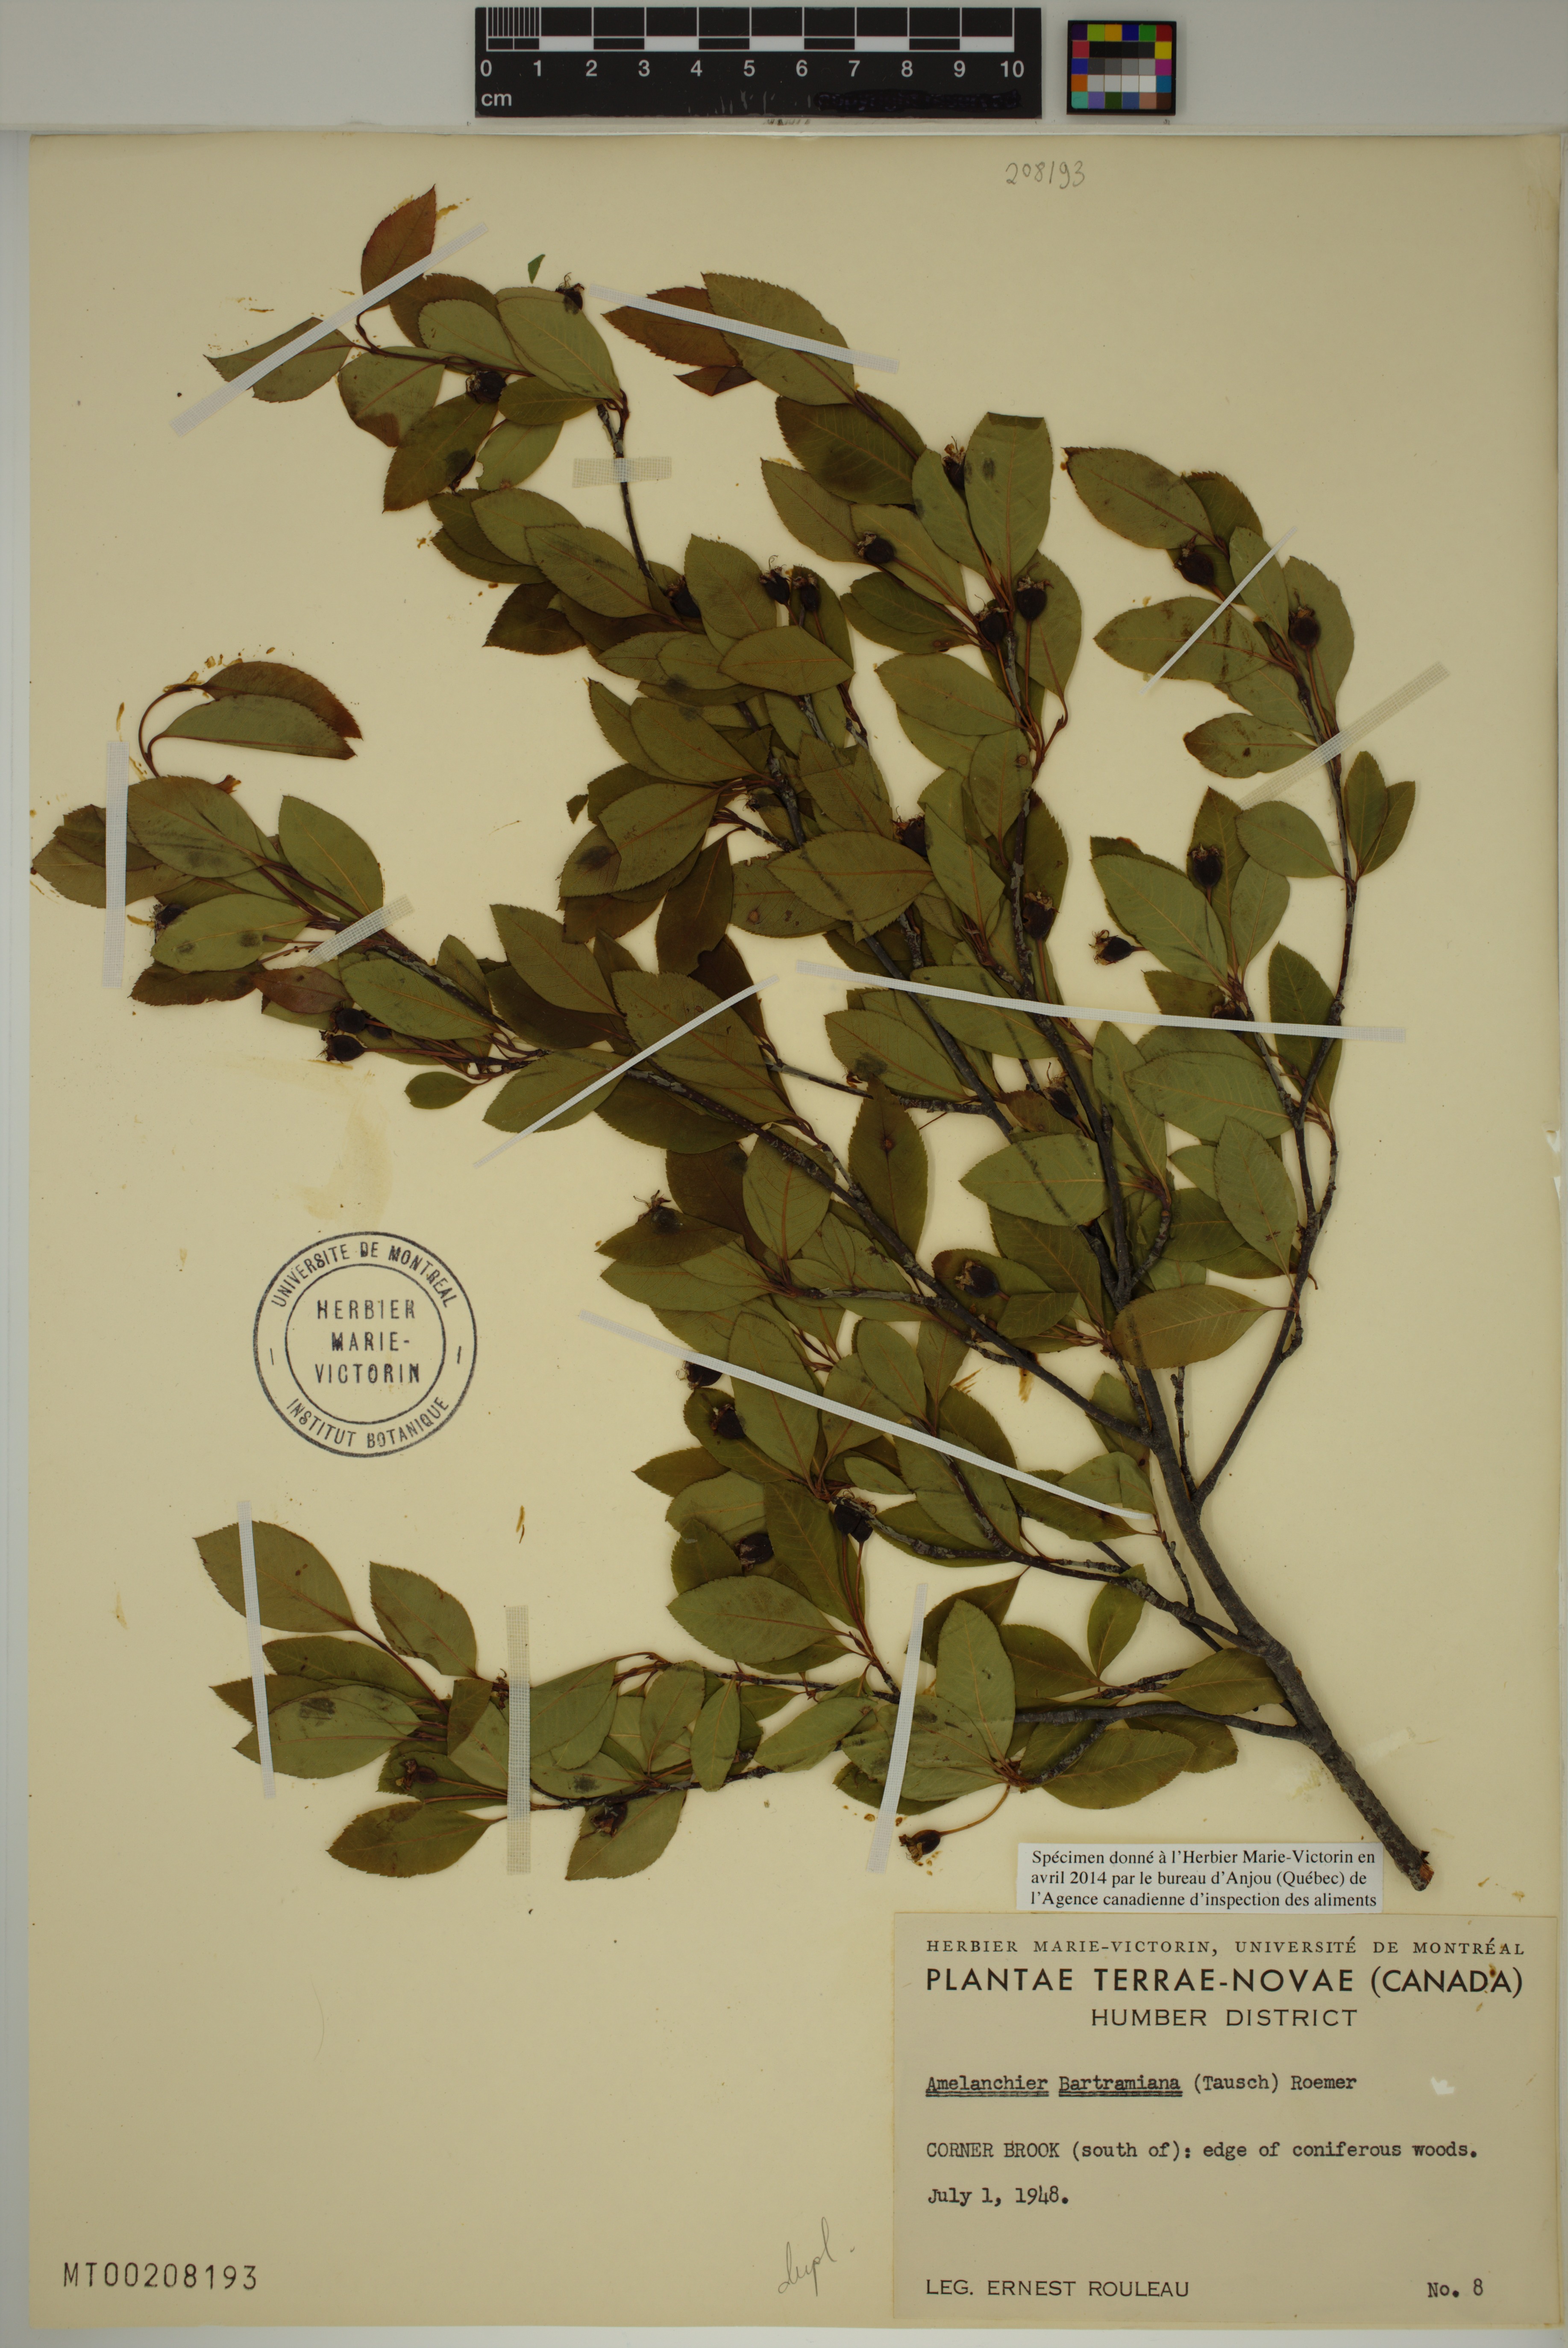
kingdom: Plantae
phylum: Tracheophyta
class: Magnoliopsida
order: Rosales
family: Rosaceae
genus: Amelanchier
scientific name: Amelanchier bartramiana
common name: Mountain serviceberry
